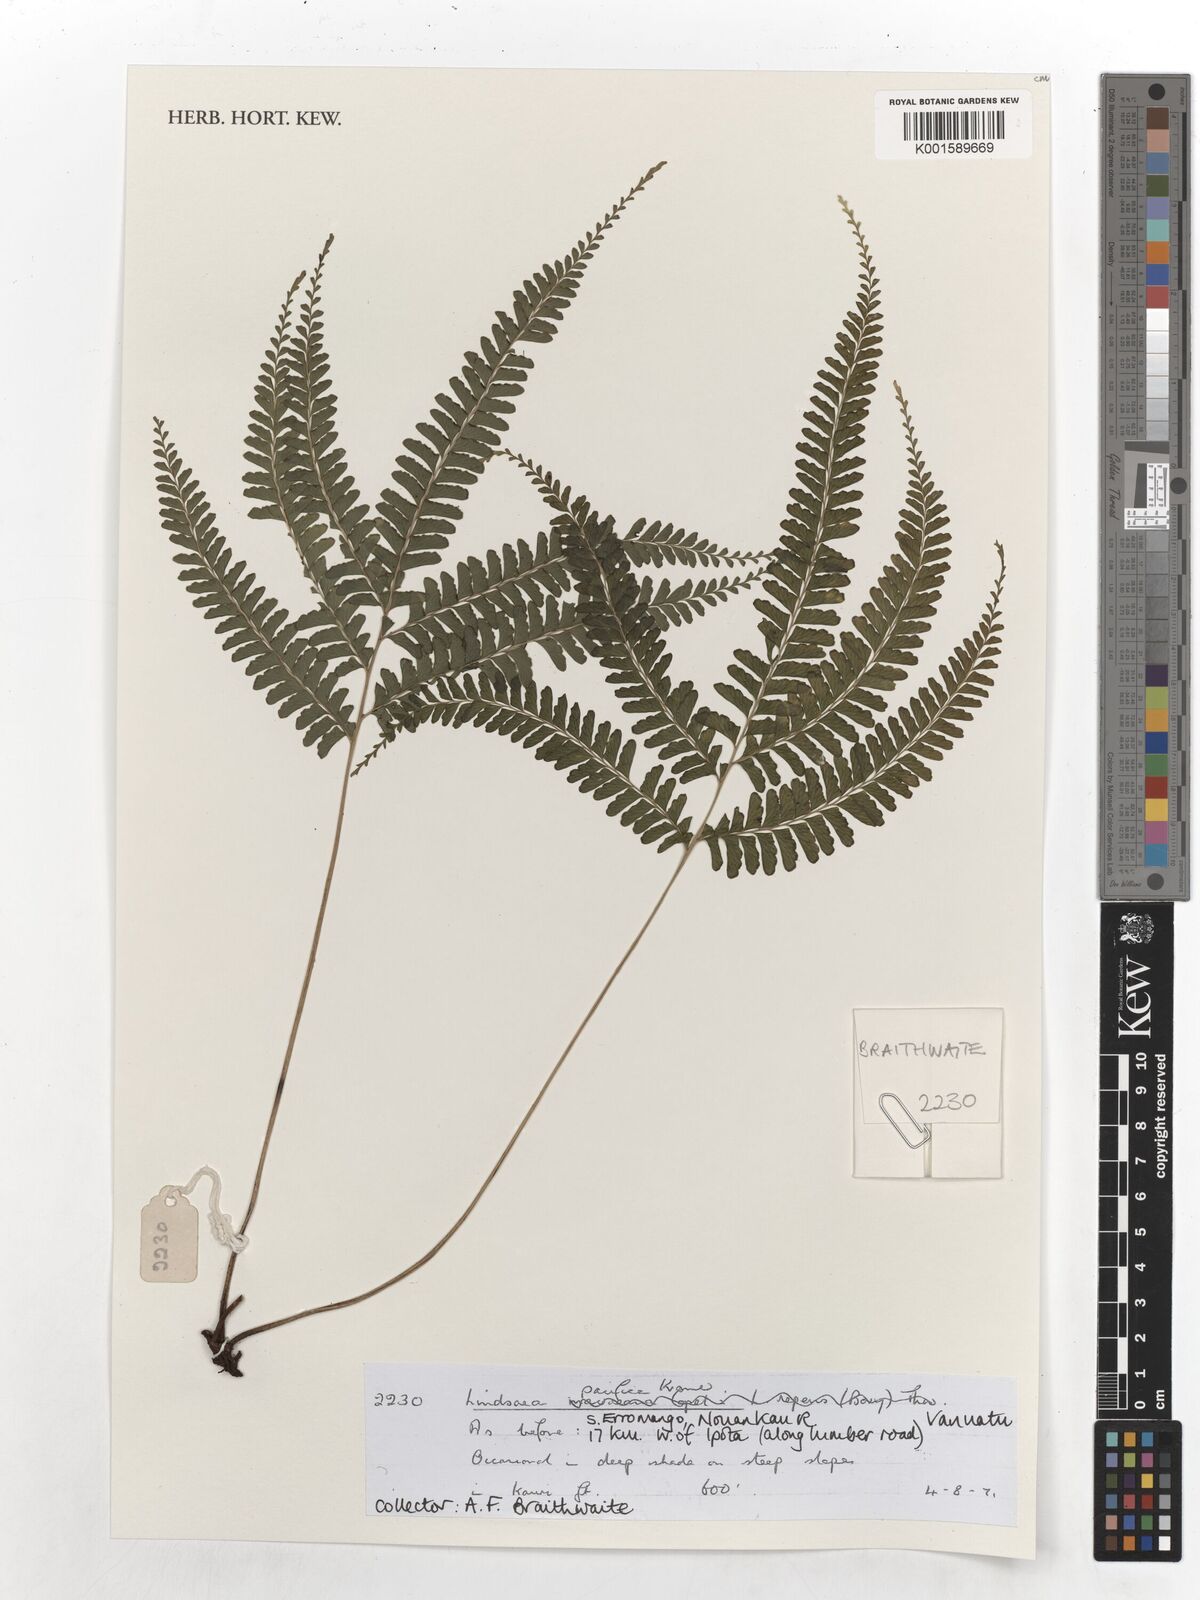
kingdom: Plantae
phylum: Tracheophyta
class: Polypodiopsida
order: Polypodiales
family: Lindsaeaceae
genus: Lindsaea
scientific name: Lindsaea pacifica
